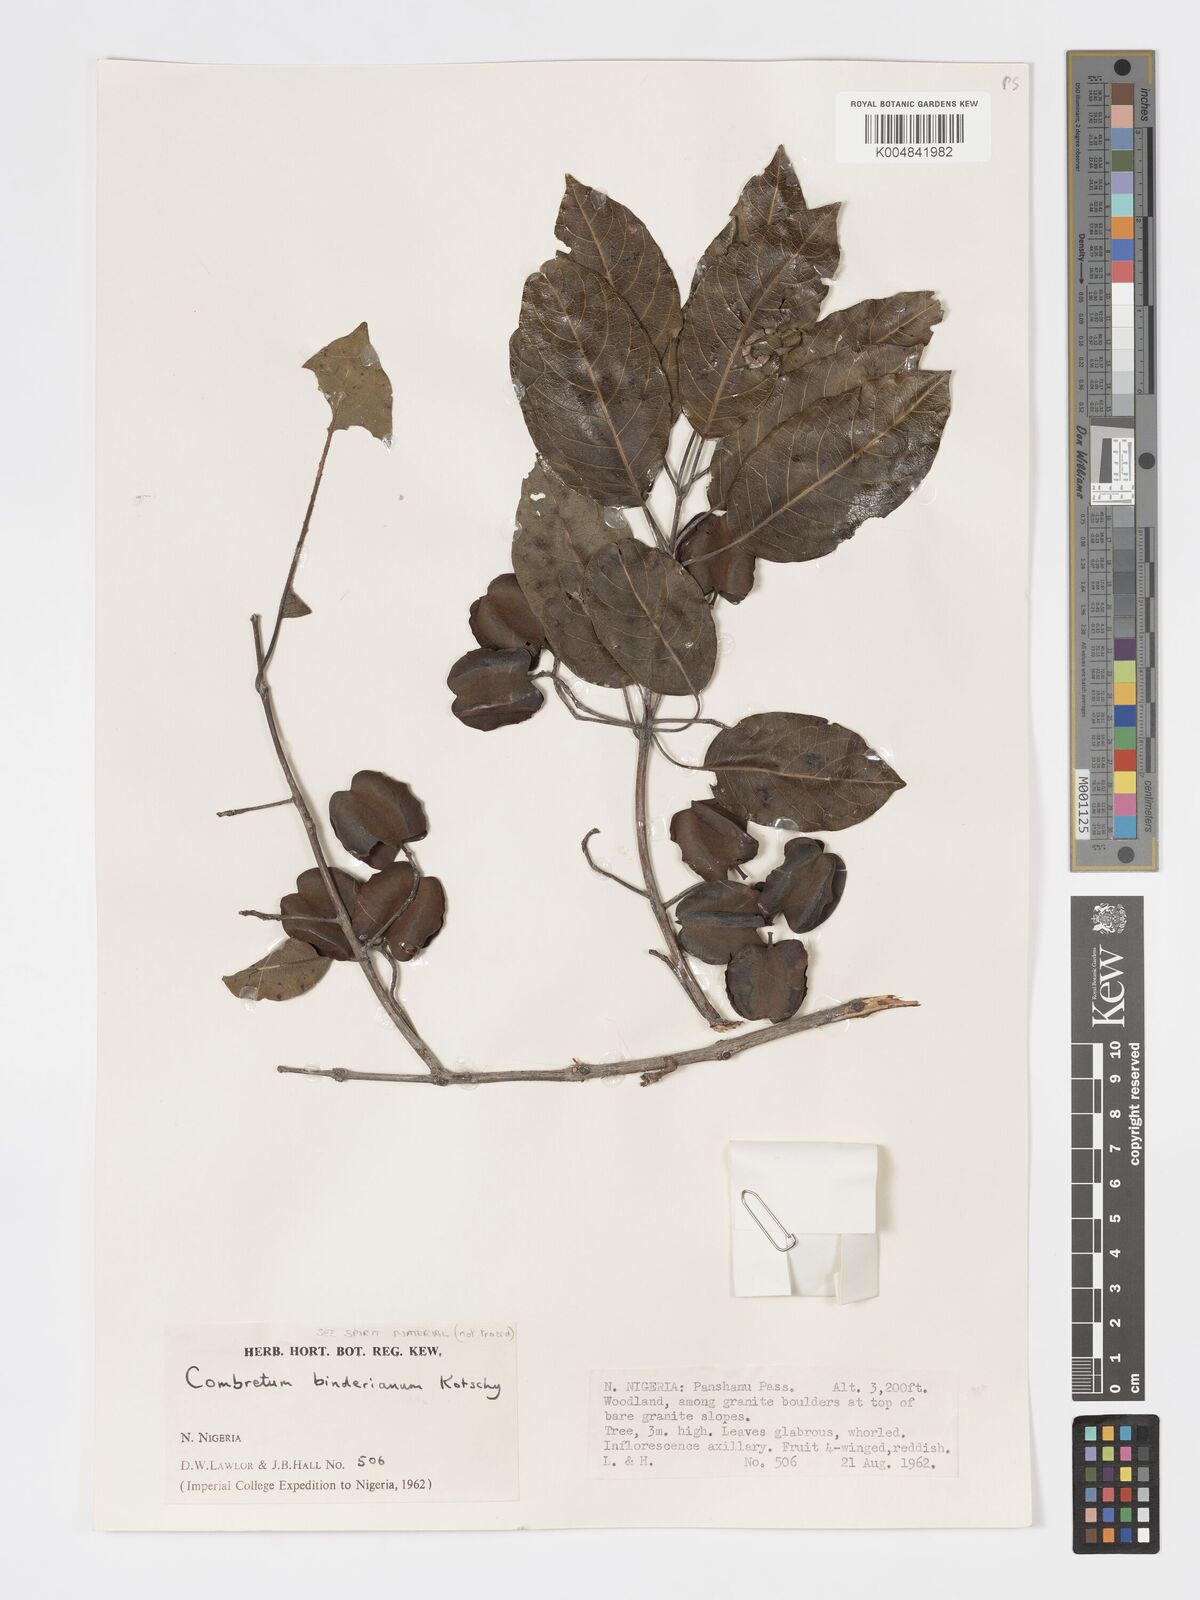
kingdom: Plantae
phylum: Tracheophyta
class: Magnoliopsida
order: Myrtales
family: Combretaceae
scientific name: Combretaceae
